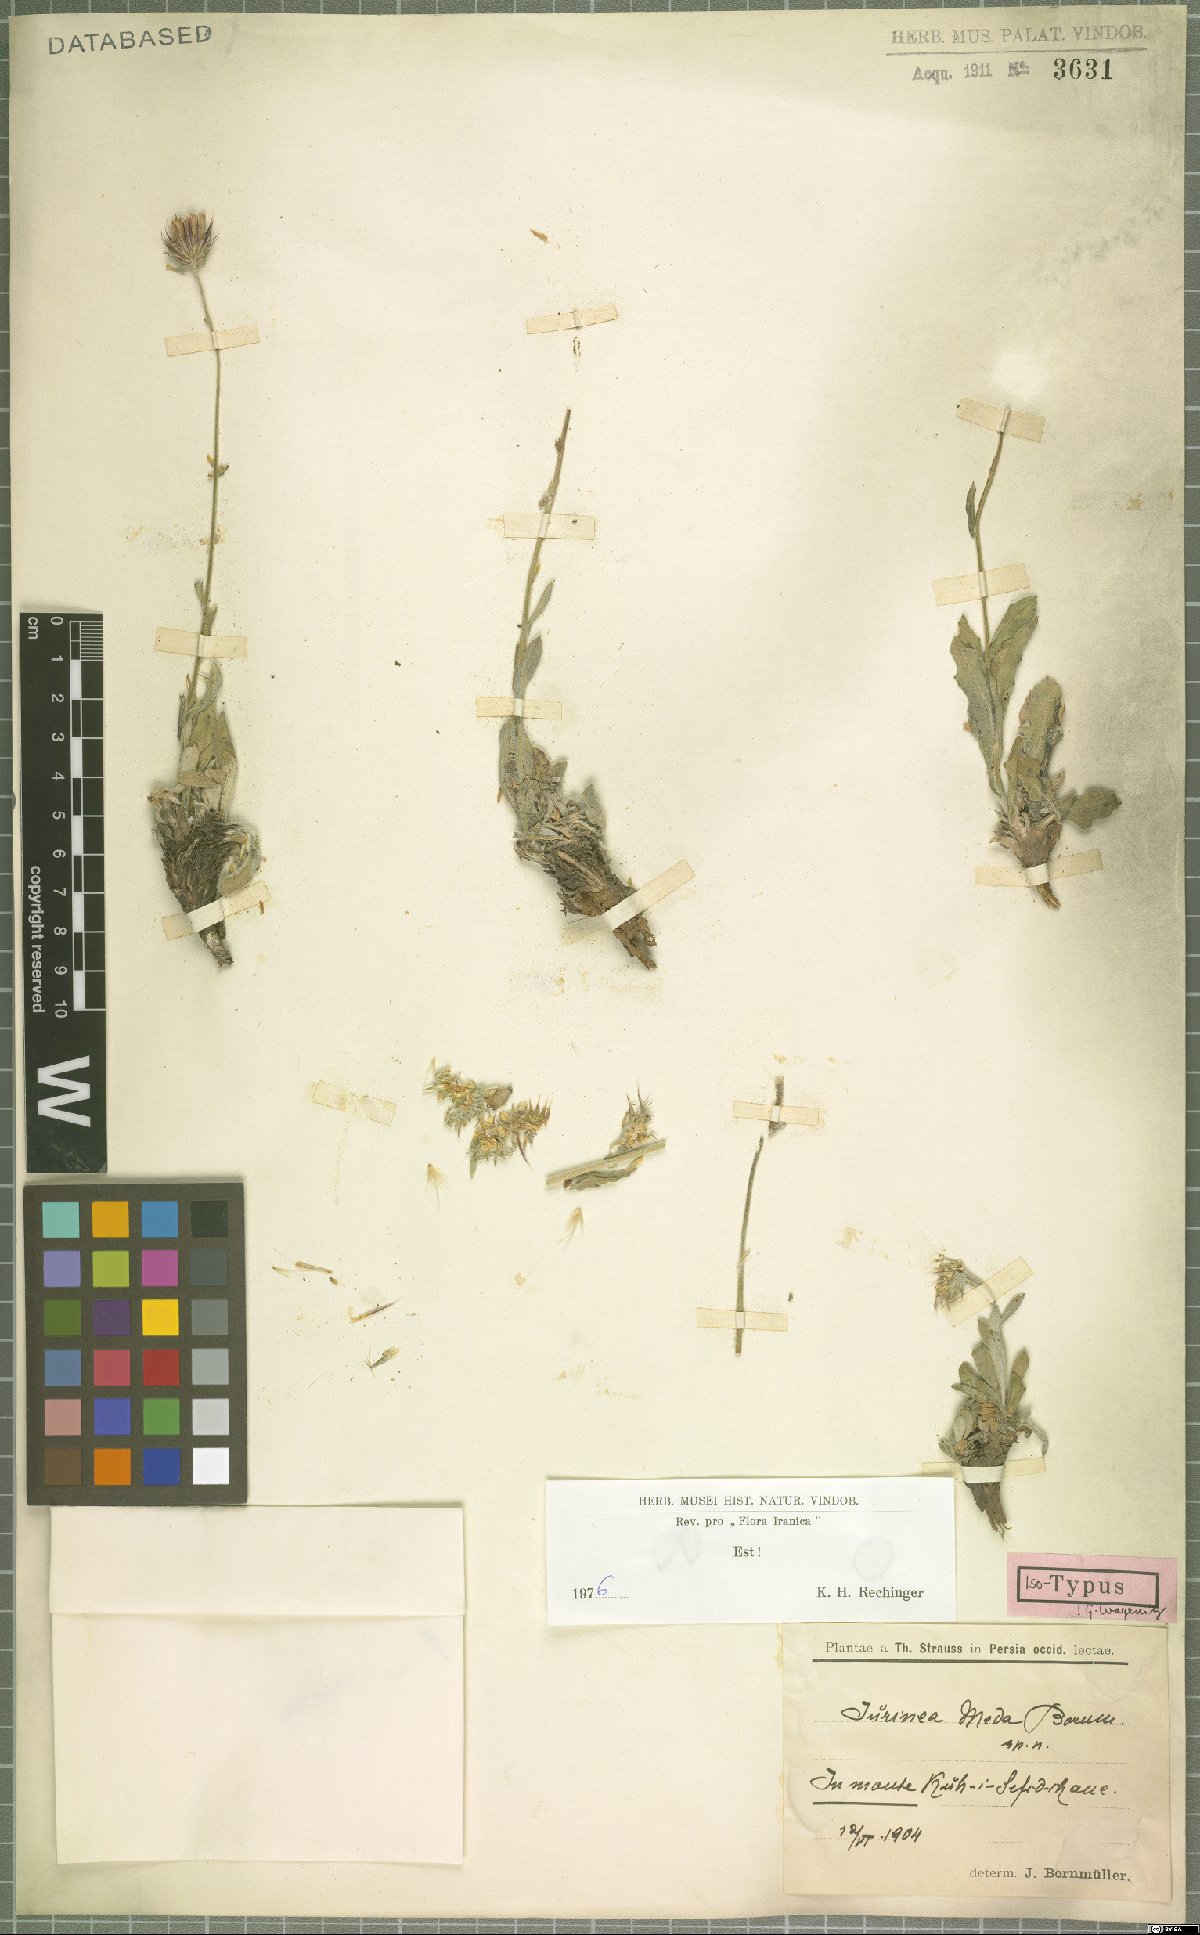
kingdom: Plantae
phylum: Tracheophyta
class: Magnoliopsida
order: Asterales
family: Asteraceae
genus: Jurinea
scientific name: Jurinea meda
